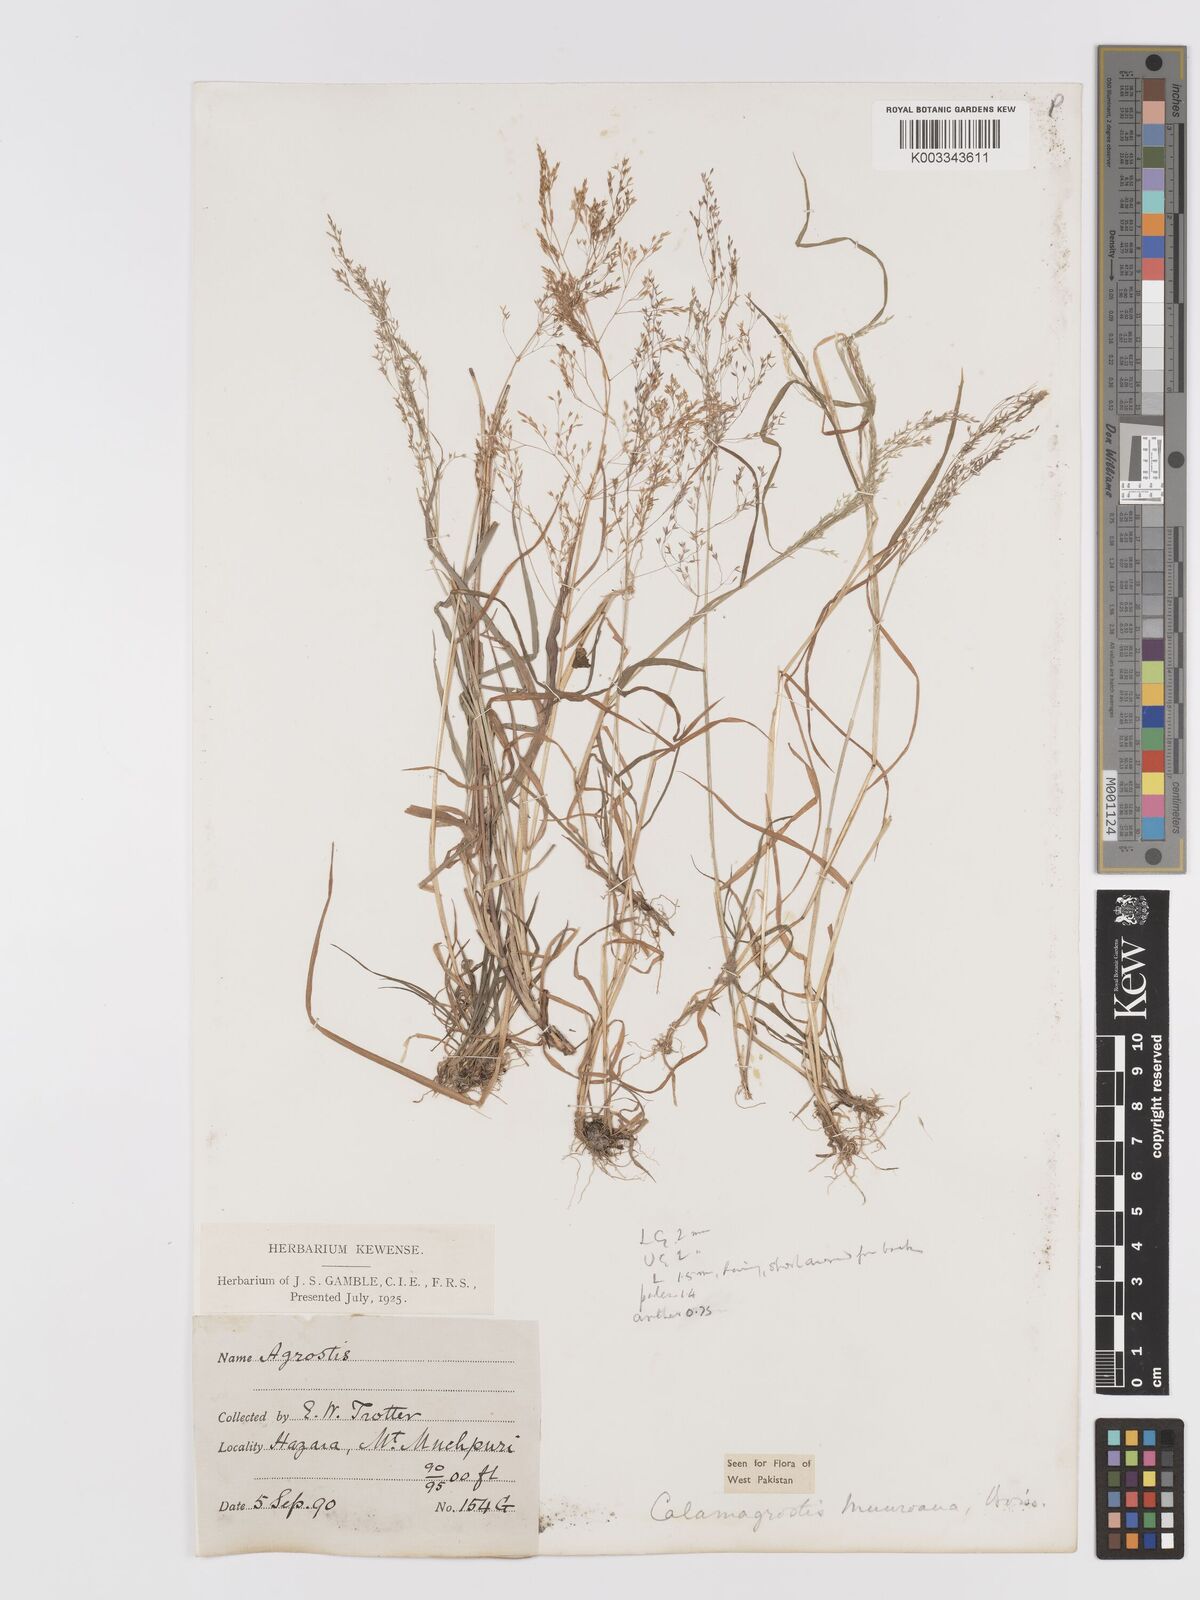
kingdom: Plantae
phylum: Tracheophyta
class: Liliopsida
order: Poales
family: Poaceae
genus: Agrostis
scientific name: Agrostis munroana
